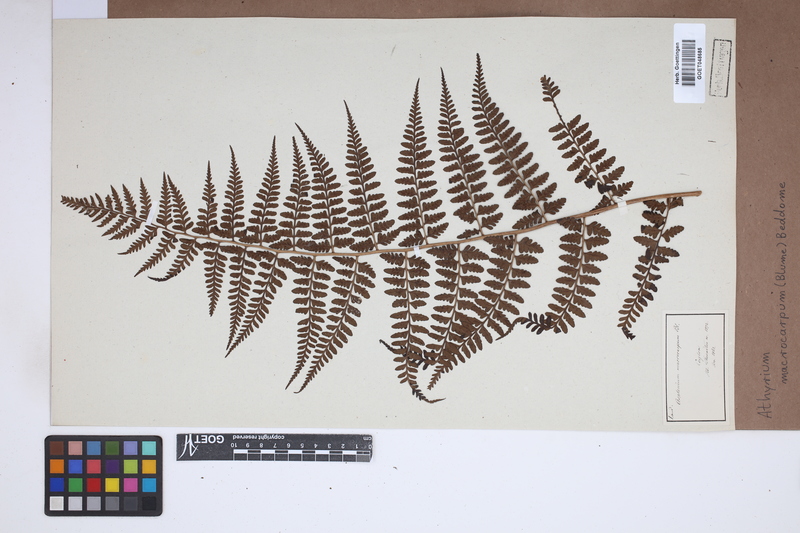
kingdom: Plantae
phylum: Tracheophyta
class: Polypodiopsida
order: Polypodiales
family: Athyriaceae
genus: Athyrium
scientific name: Athyrium puncticaule
